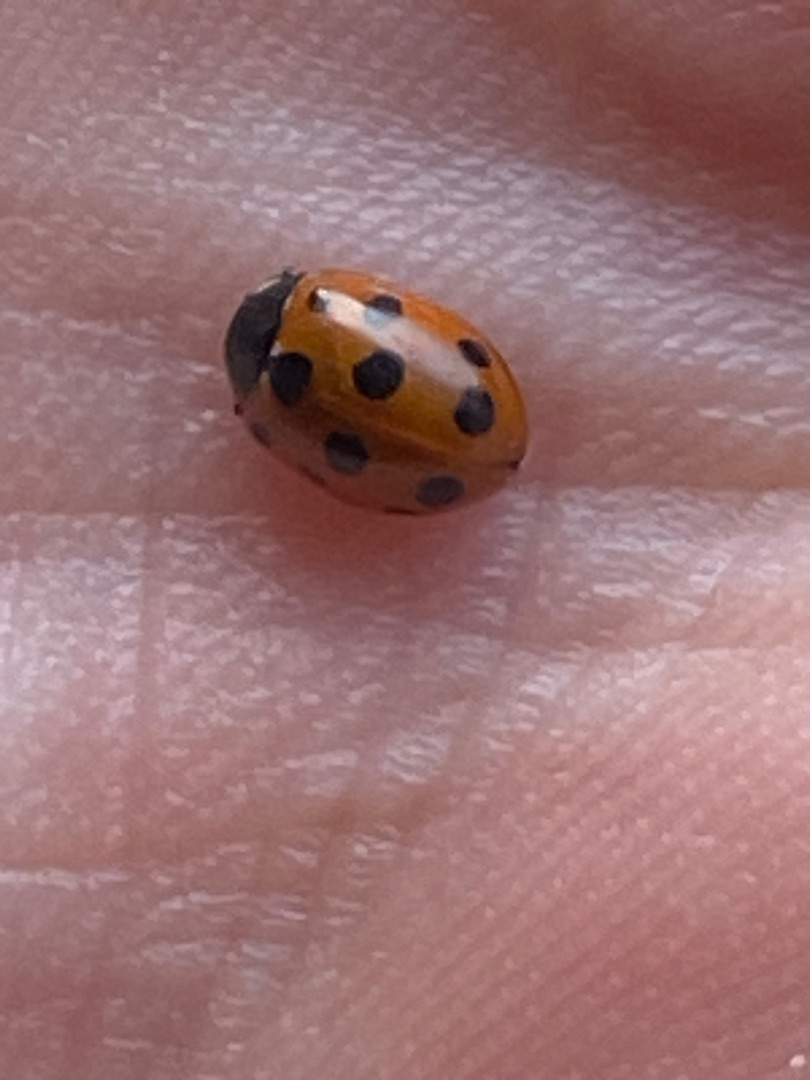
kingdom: Animalia
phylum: Arthropoda
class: Insecta
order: Coleoptera
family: Coccinellidae
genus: Coccinella
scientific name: Coccinella undecimpunctata
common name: Elleveplettet mariehøne
